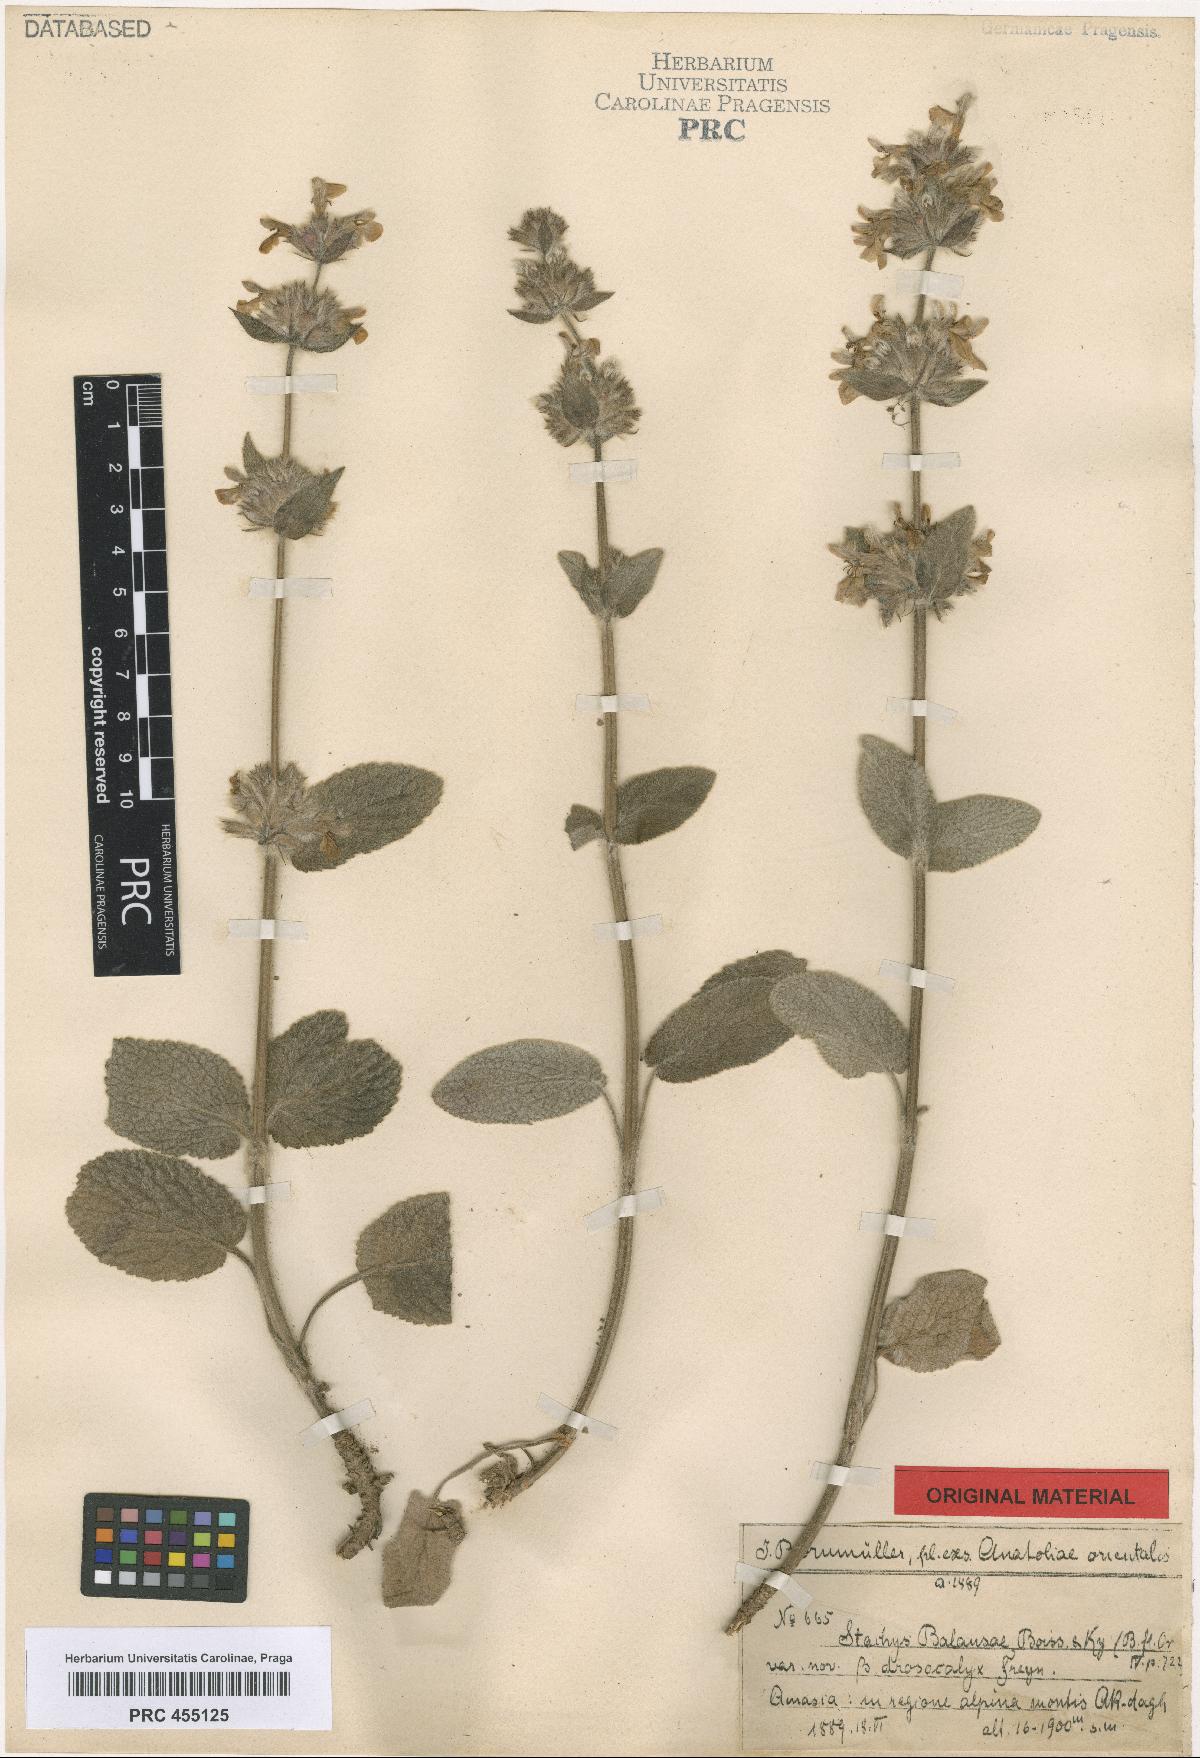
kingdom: Plantae
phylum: Tracheophyta
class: Magnoliopsida
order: Lamiales
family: Lamiaceae
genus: Stachys
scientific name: Stachys balansae
